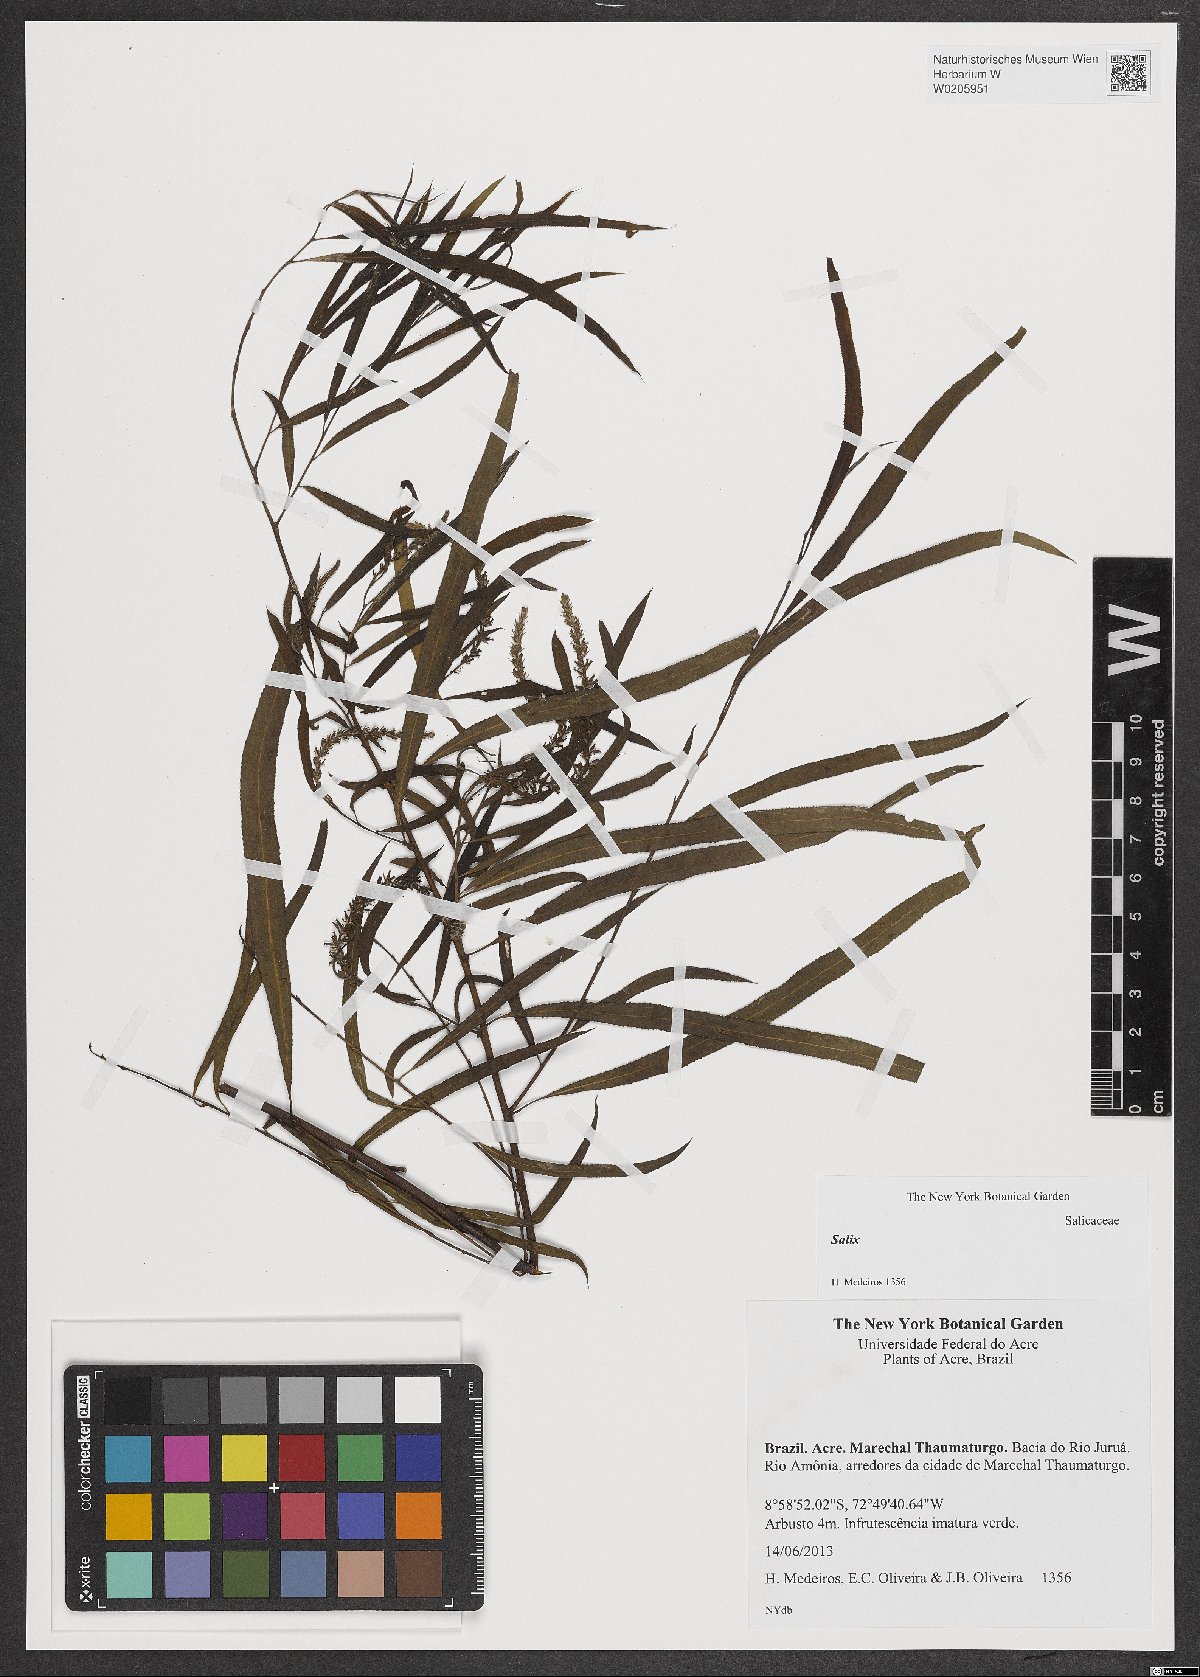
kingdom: Plantae
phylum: Tracheophyta
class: Magnoliopsida
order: Malpighiales
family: Salicaceae
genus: Salix
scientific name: Salix
